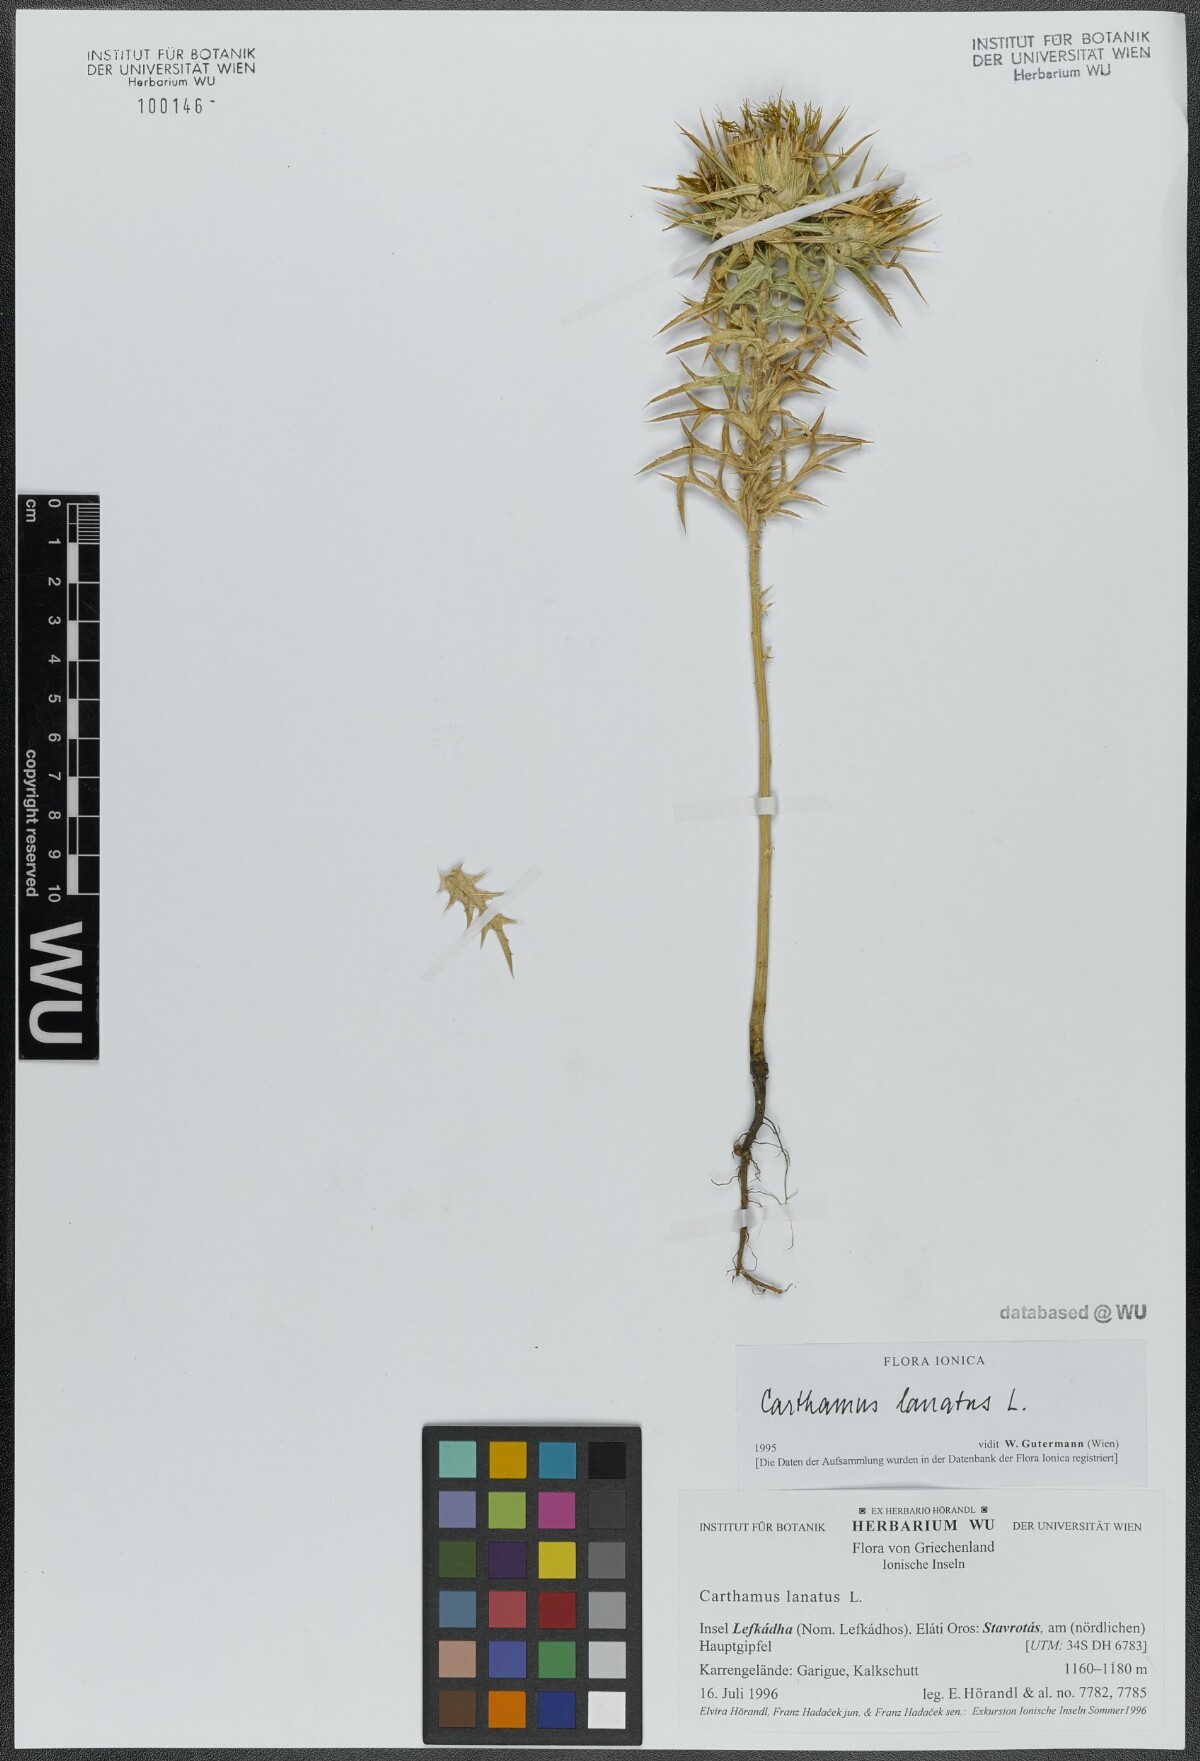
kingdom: Plantae
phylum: Tracheophyta
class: Magnoliopsida
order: Asterales
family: Asteraceae
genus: Carthamus
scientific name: Carthamus lanatus
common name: Downy safflower
